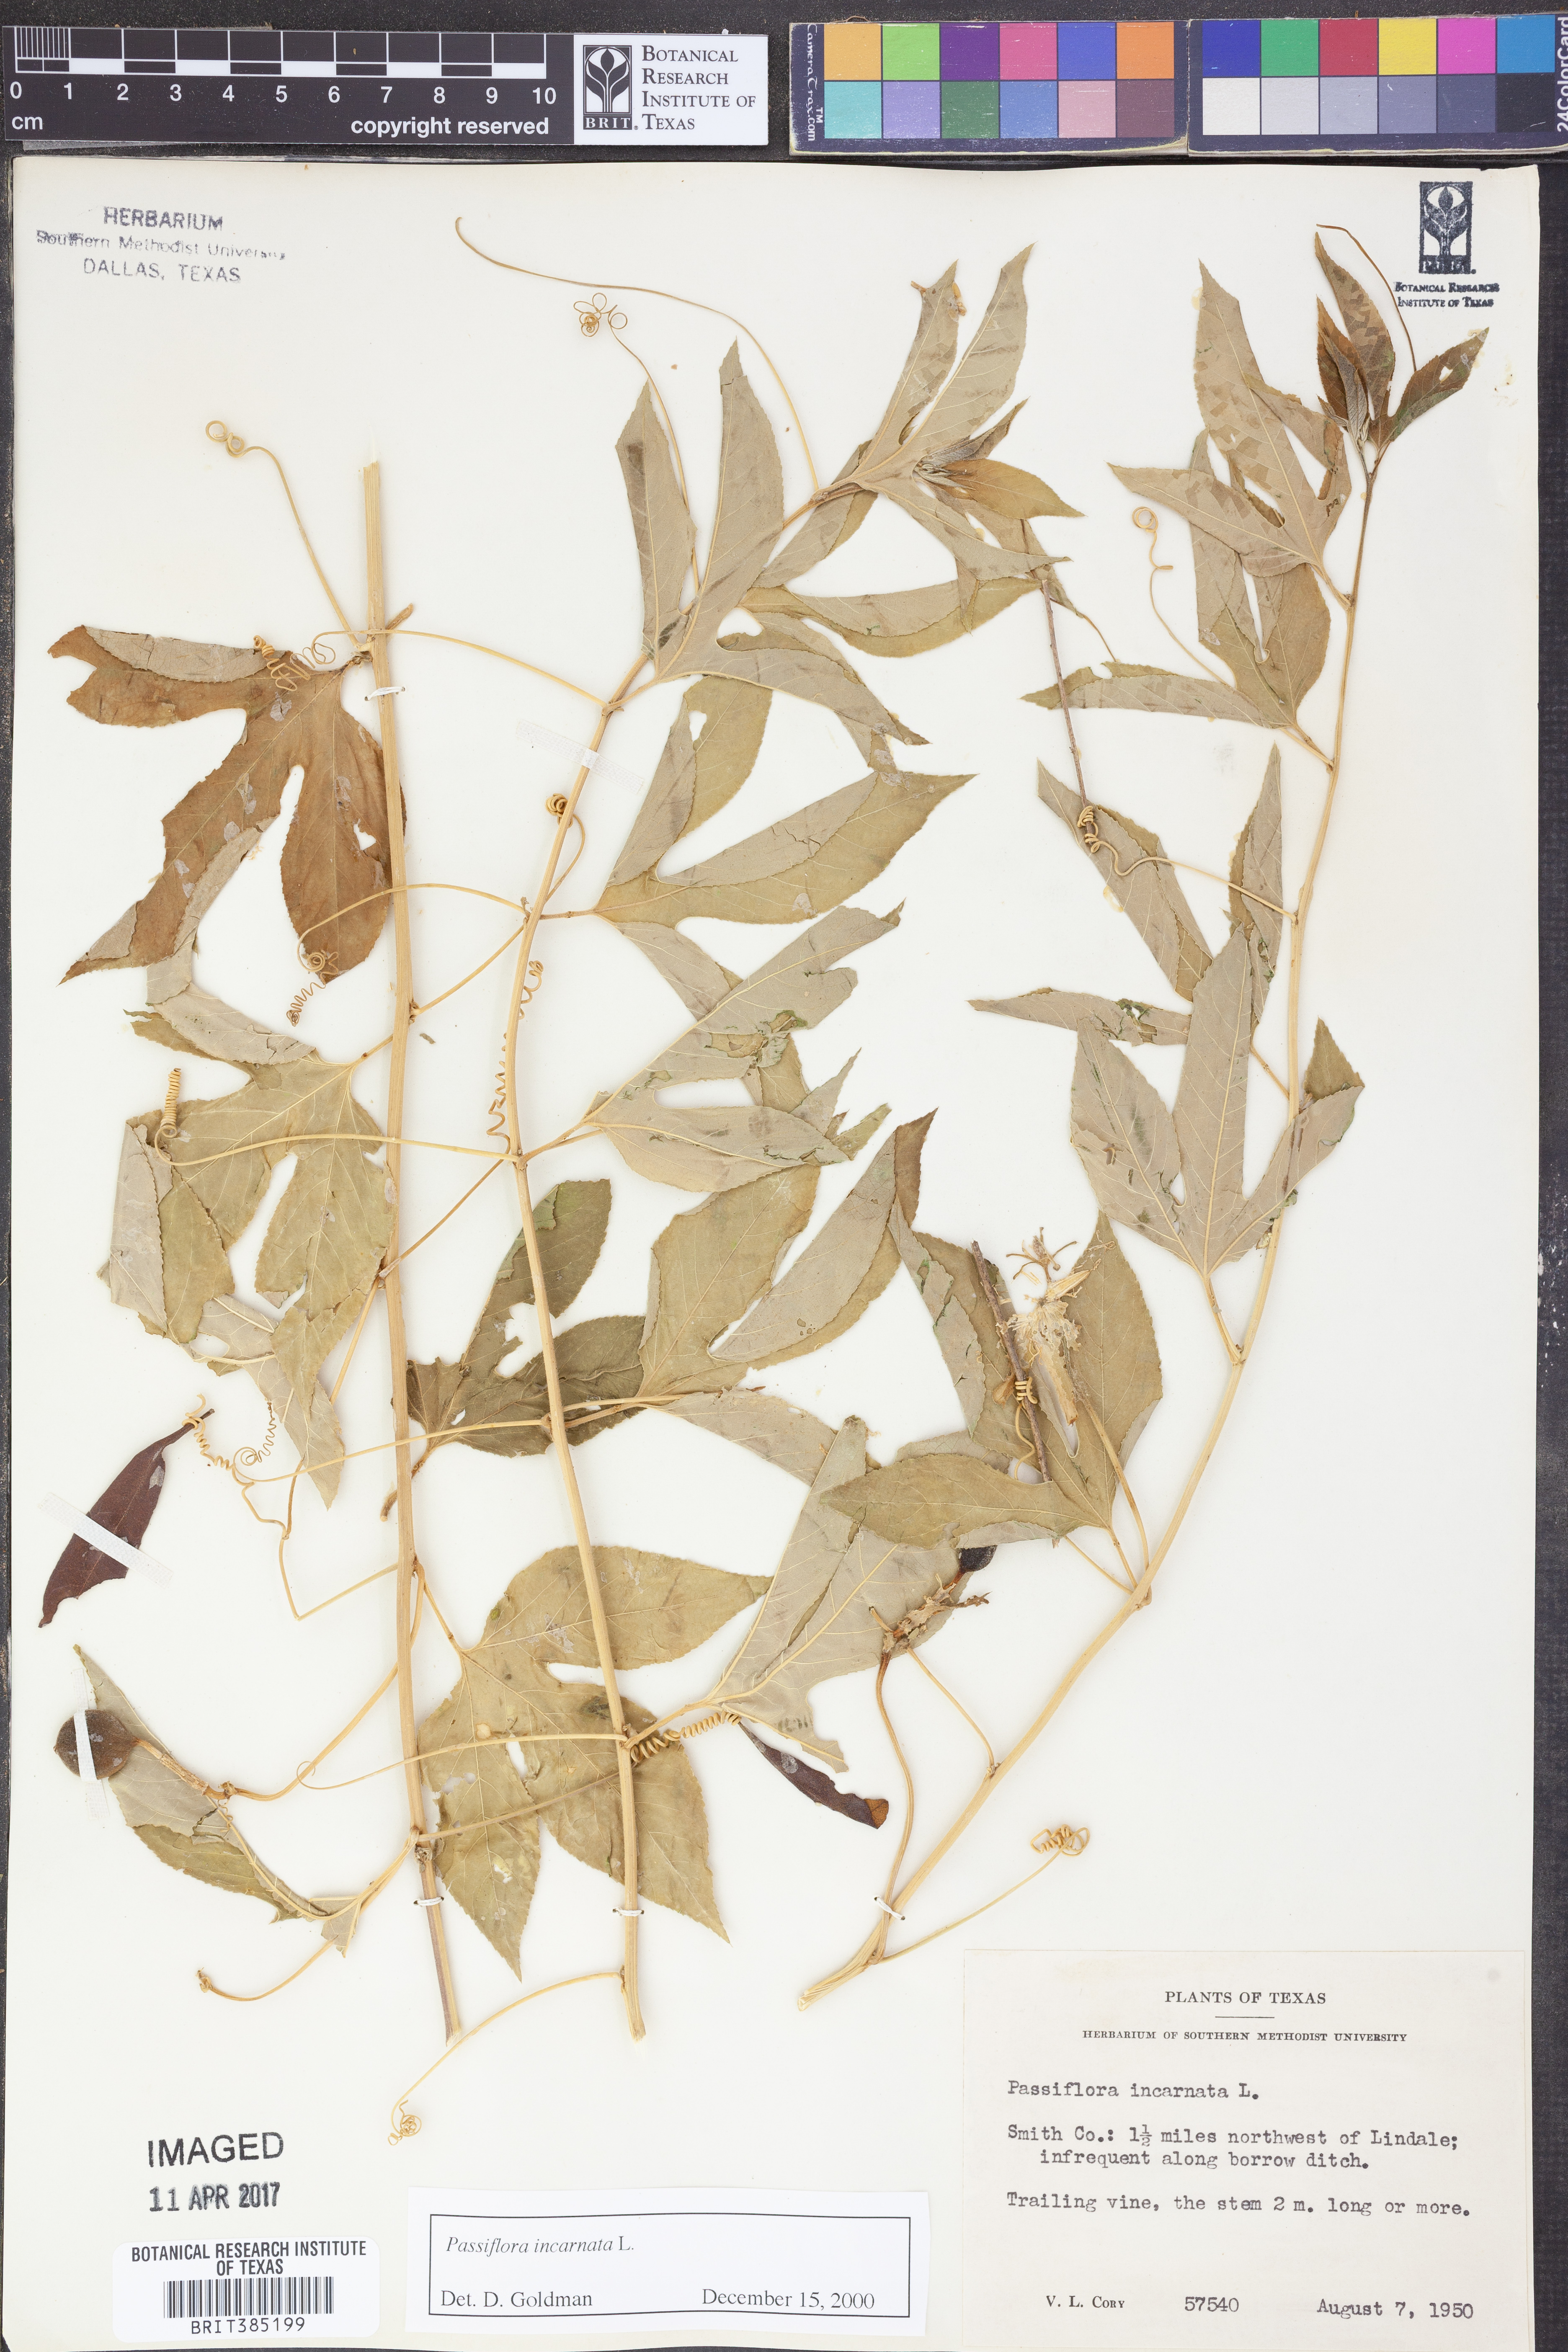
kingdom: Plantae
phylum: Tracheophyta
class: Magnoliopsida
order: Malpighiales
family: Passifloraceae
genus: Passiflora
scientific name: Passiflora incarnata
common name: Apricot-vine
